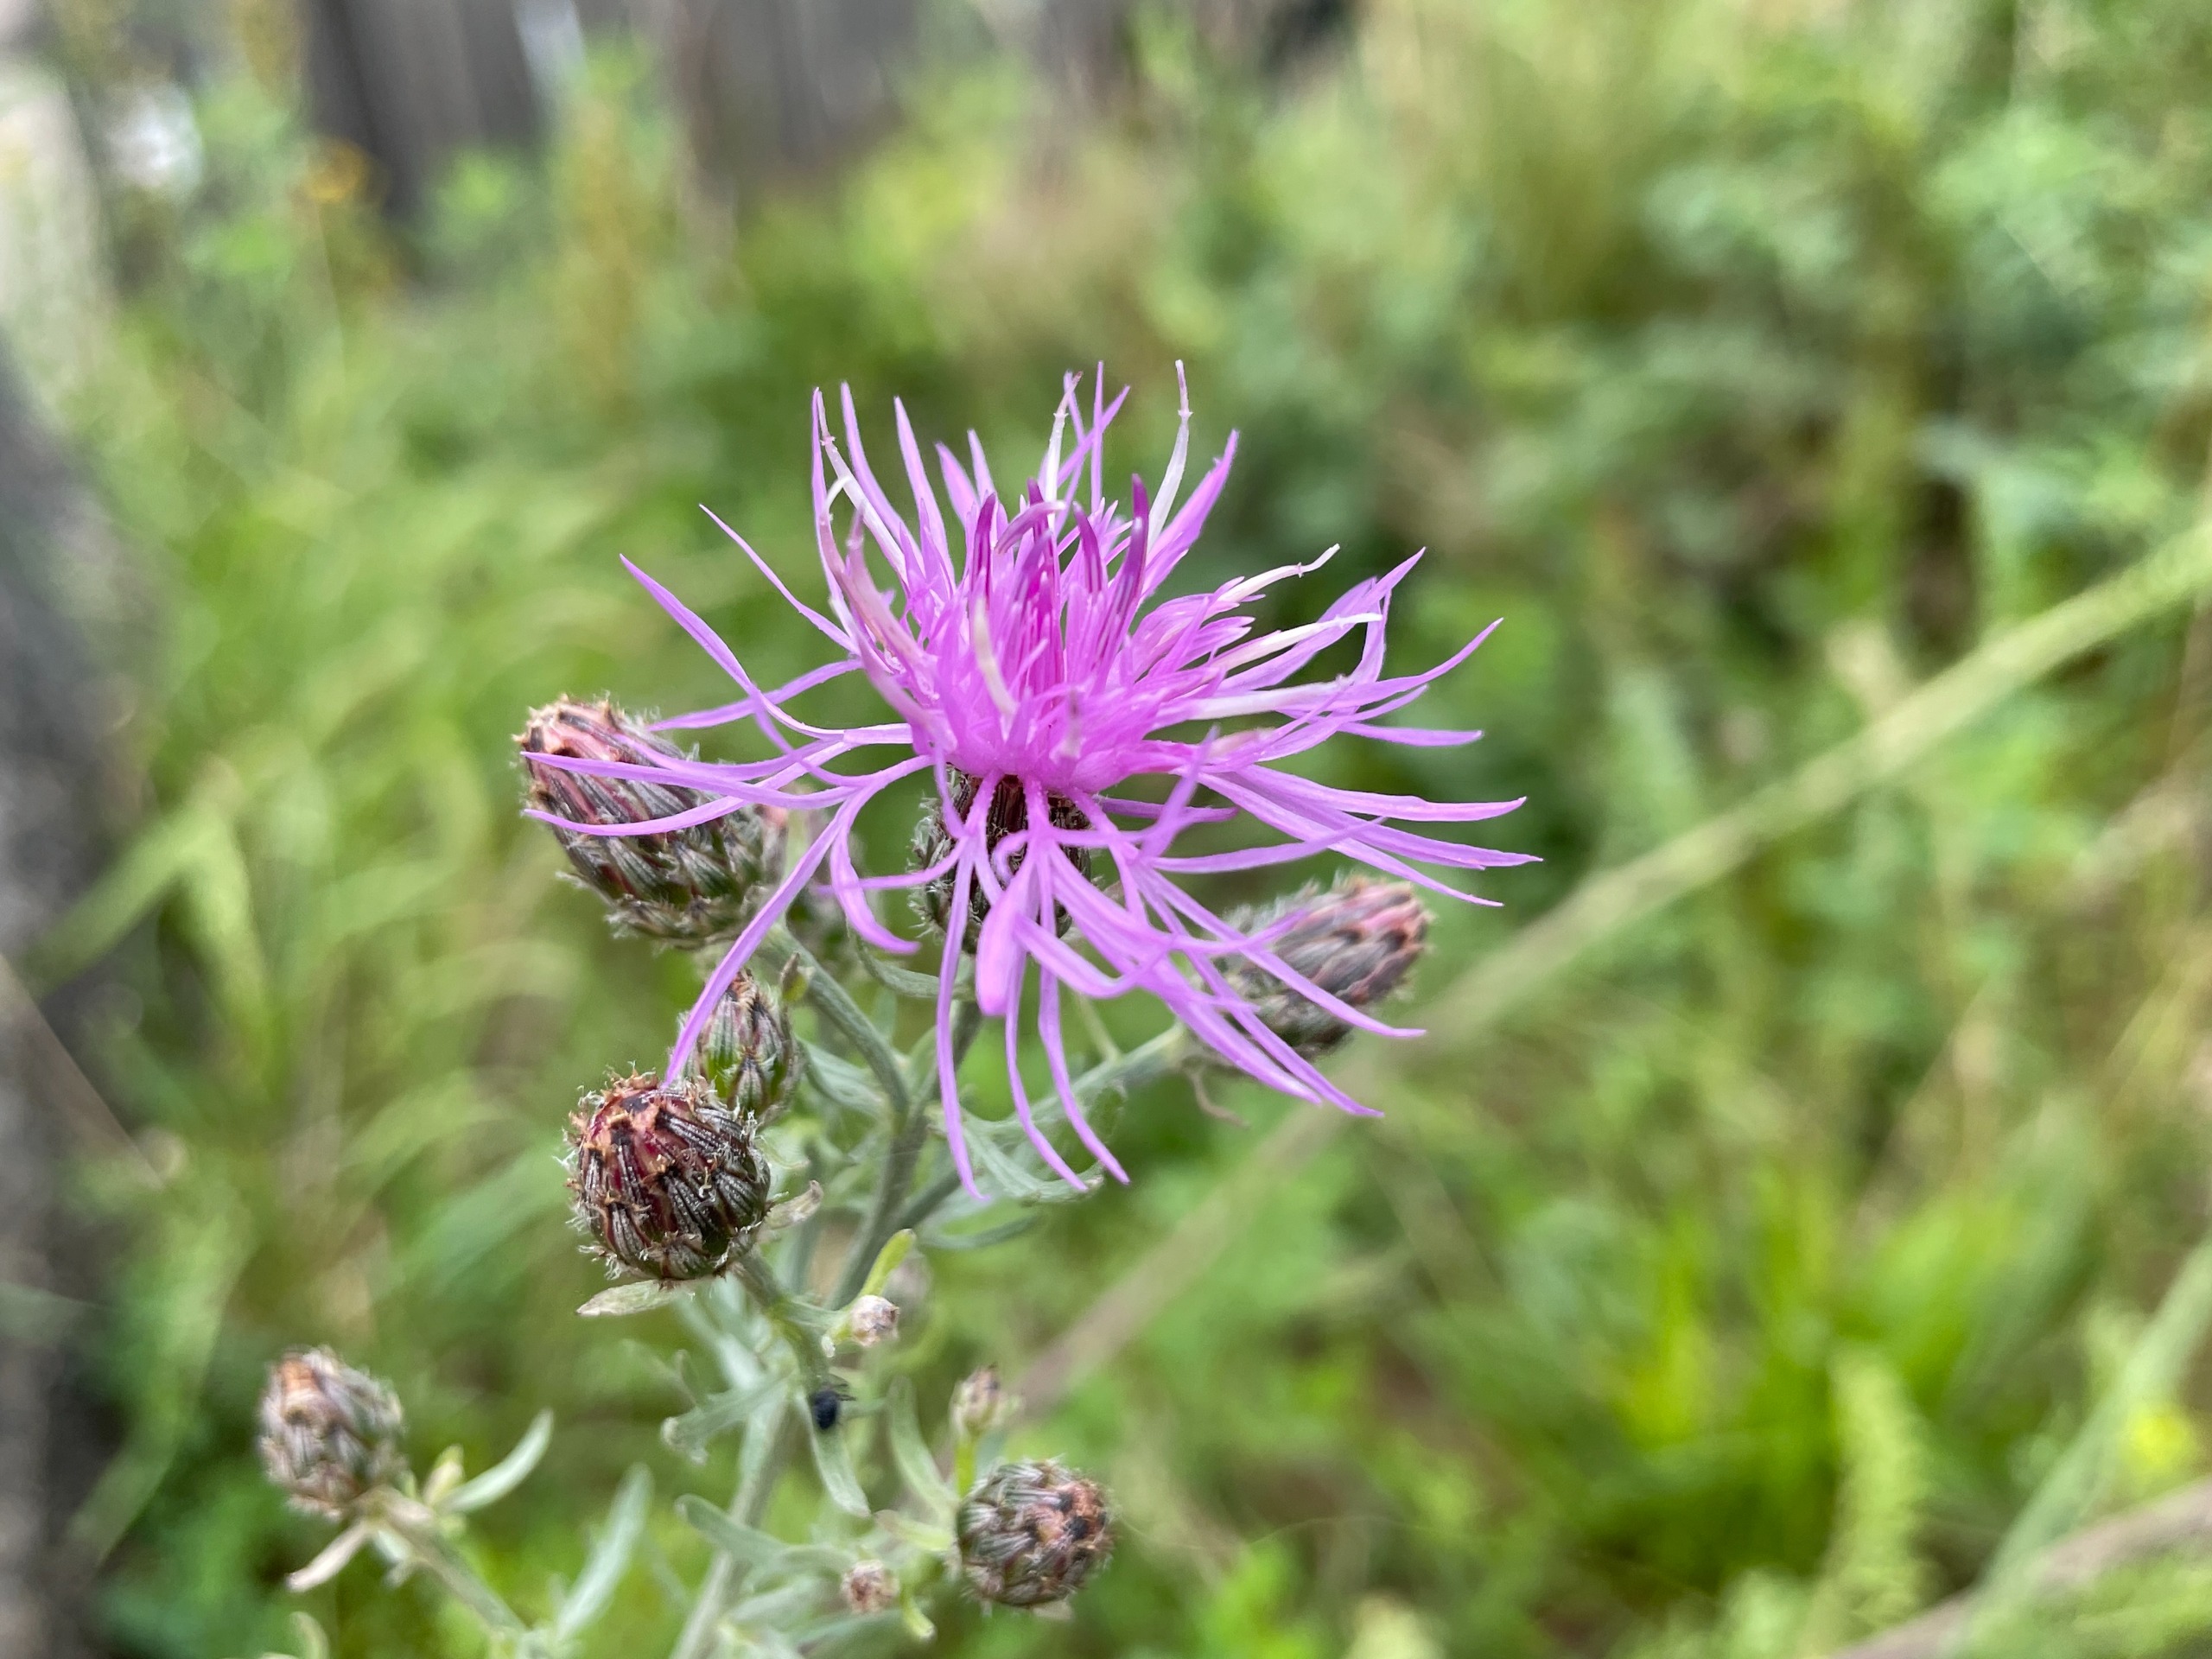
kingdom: Plantae
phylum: Tracheophyta
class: Magnoliopsida
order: Asterales
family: Asteraceae
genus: Centaurea
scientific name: Centaurea stoebe
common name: Mangegrenet knopurt
